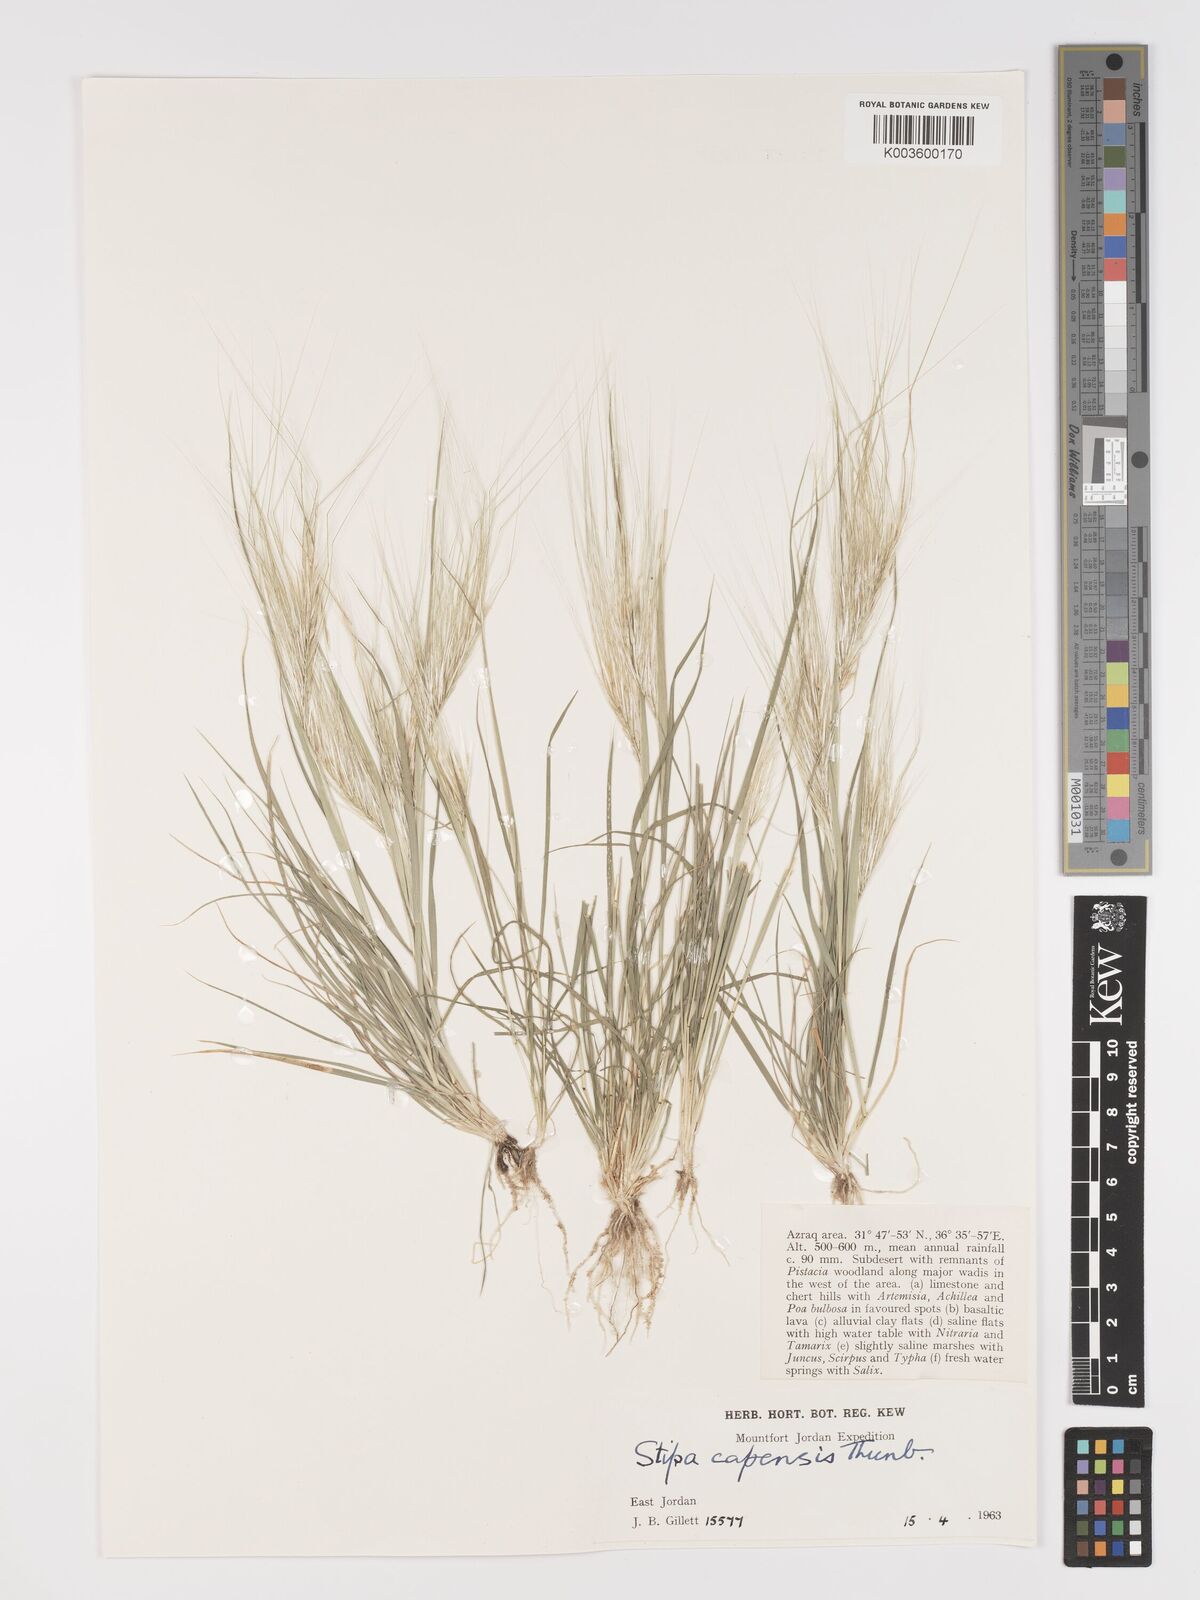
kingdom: Plantae
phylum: Tracheophyta
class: Liliopsida
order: Poales
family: Poaceae
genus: Stipellula
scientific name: Stipellula capensis
